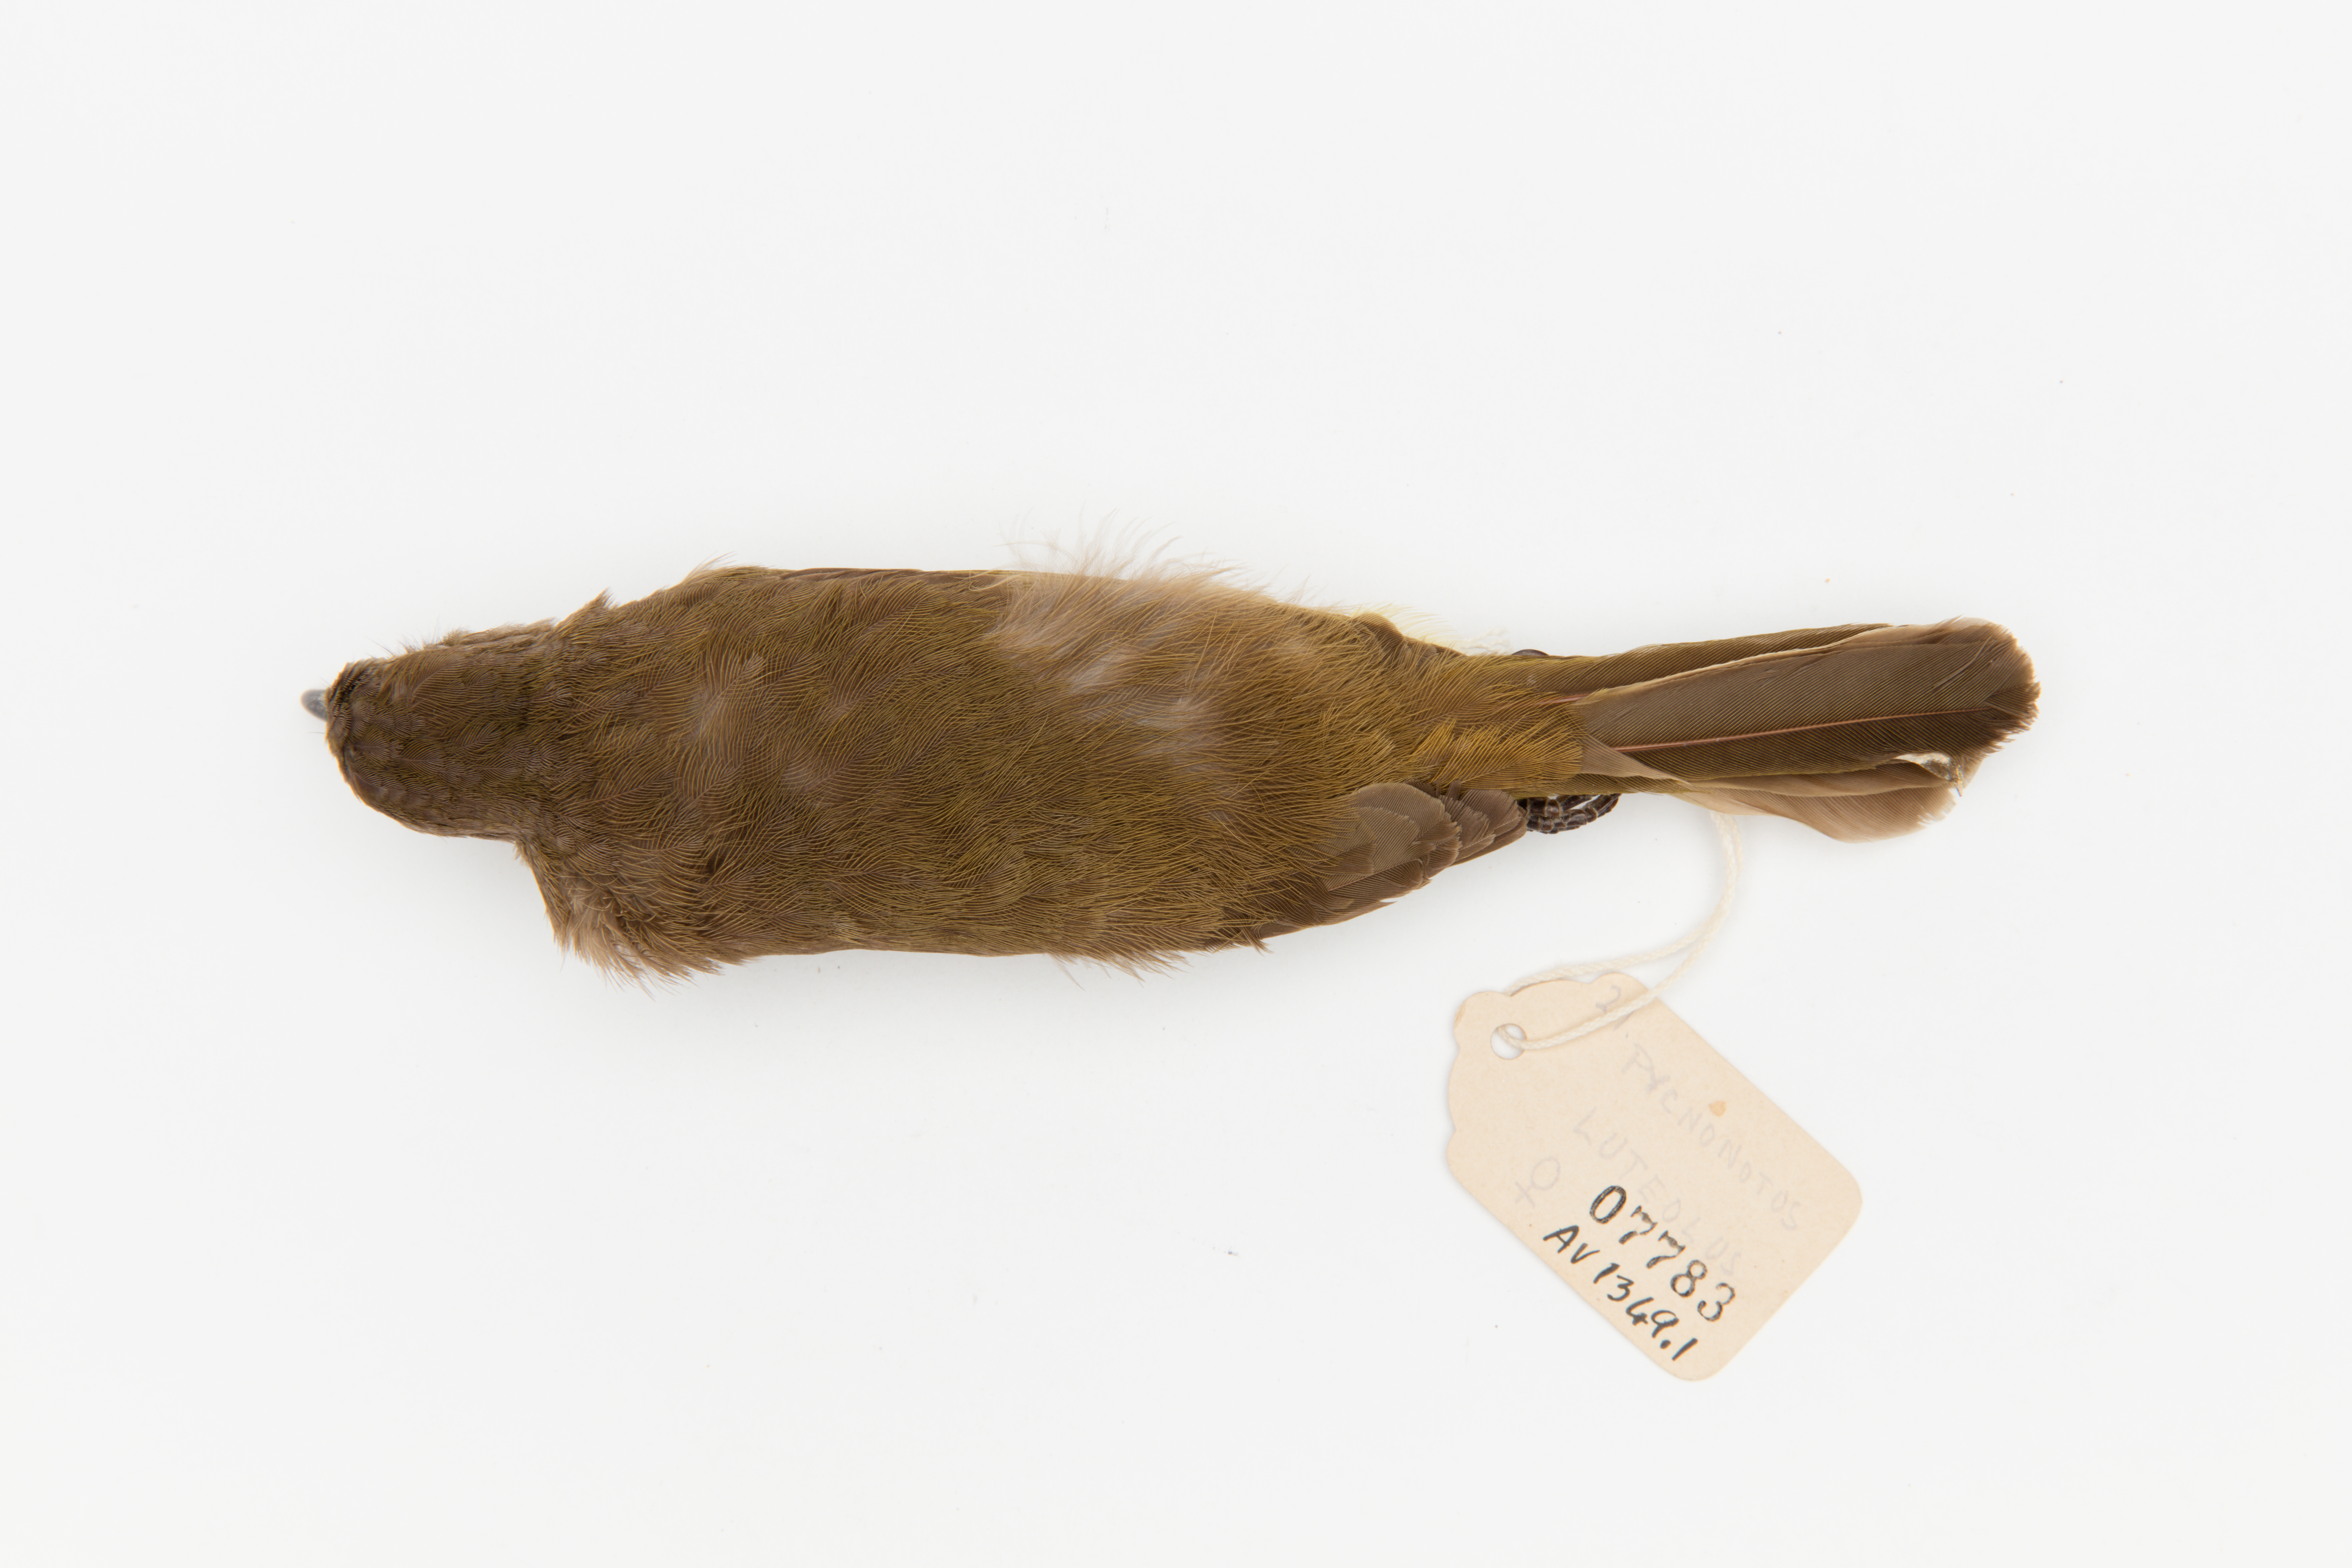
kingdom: Animalia
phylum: Chordata
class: Aves
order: Passeriformes
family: Pycnonotidae
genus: Pycnonotus
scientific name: Pycnonotus luteolus
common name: White-browed bulbul
